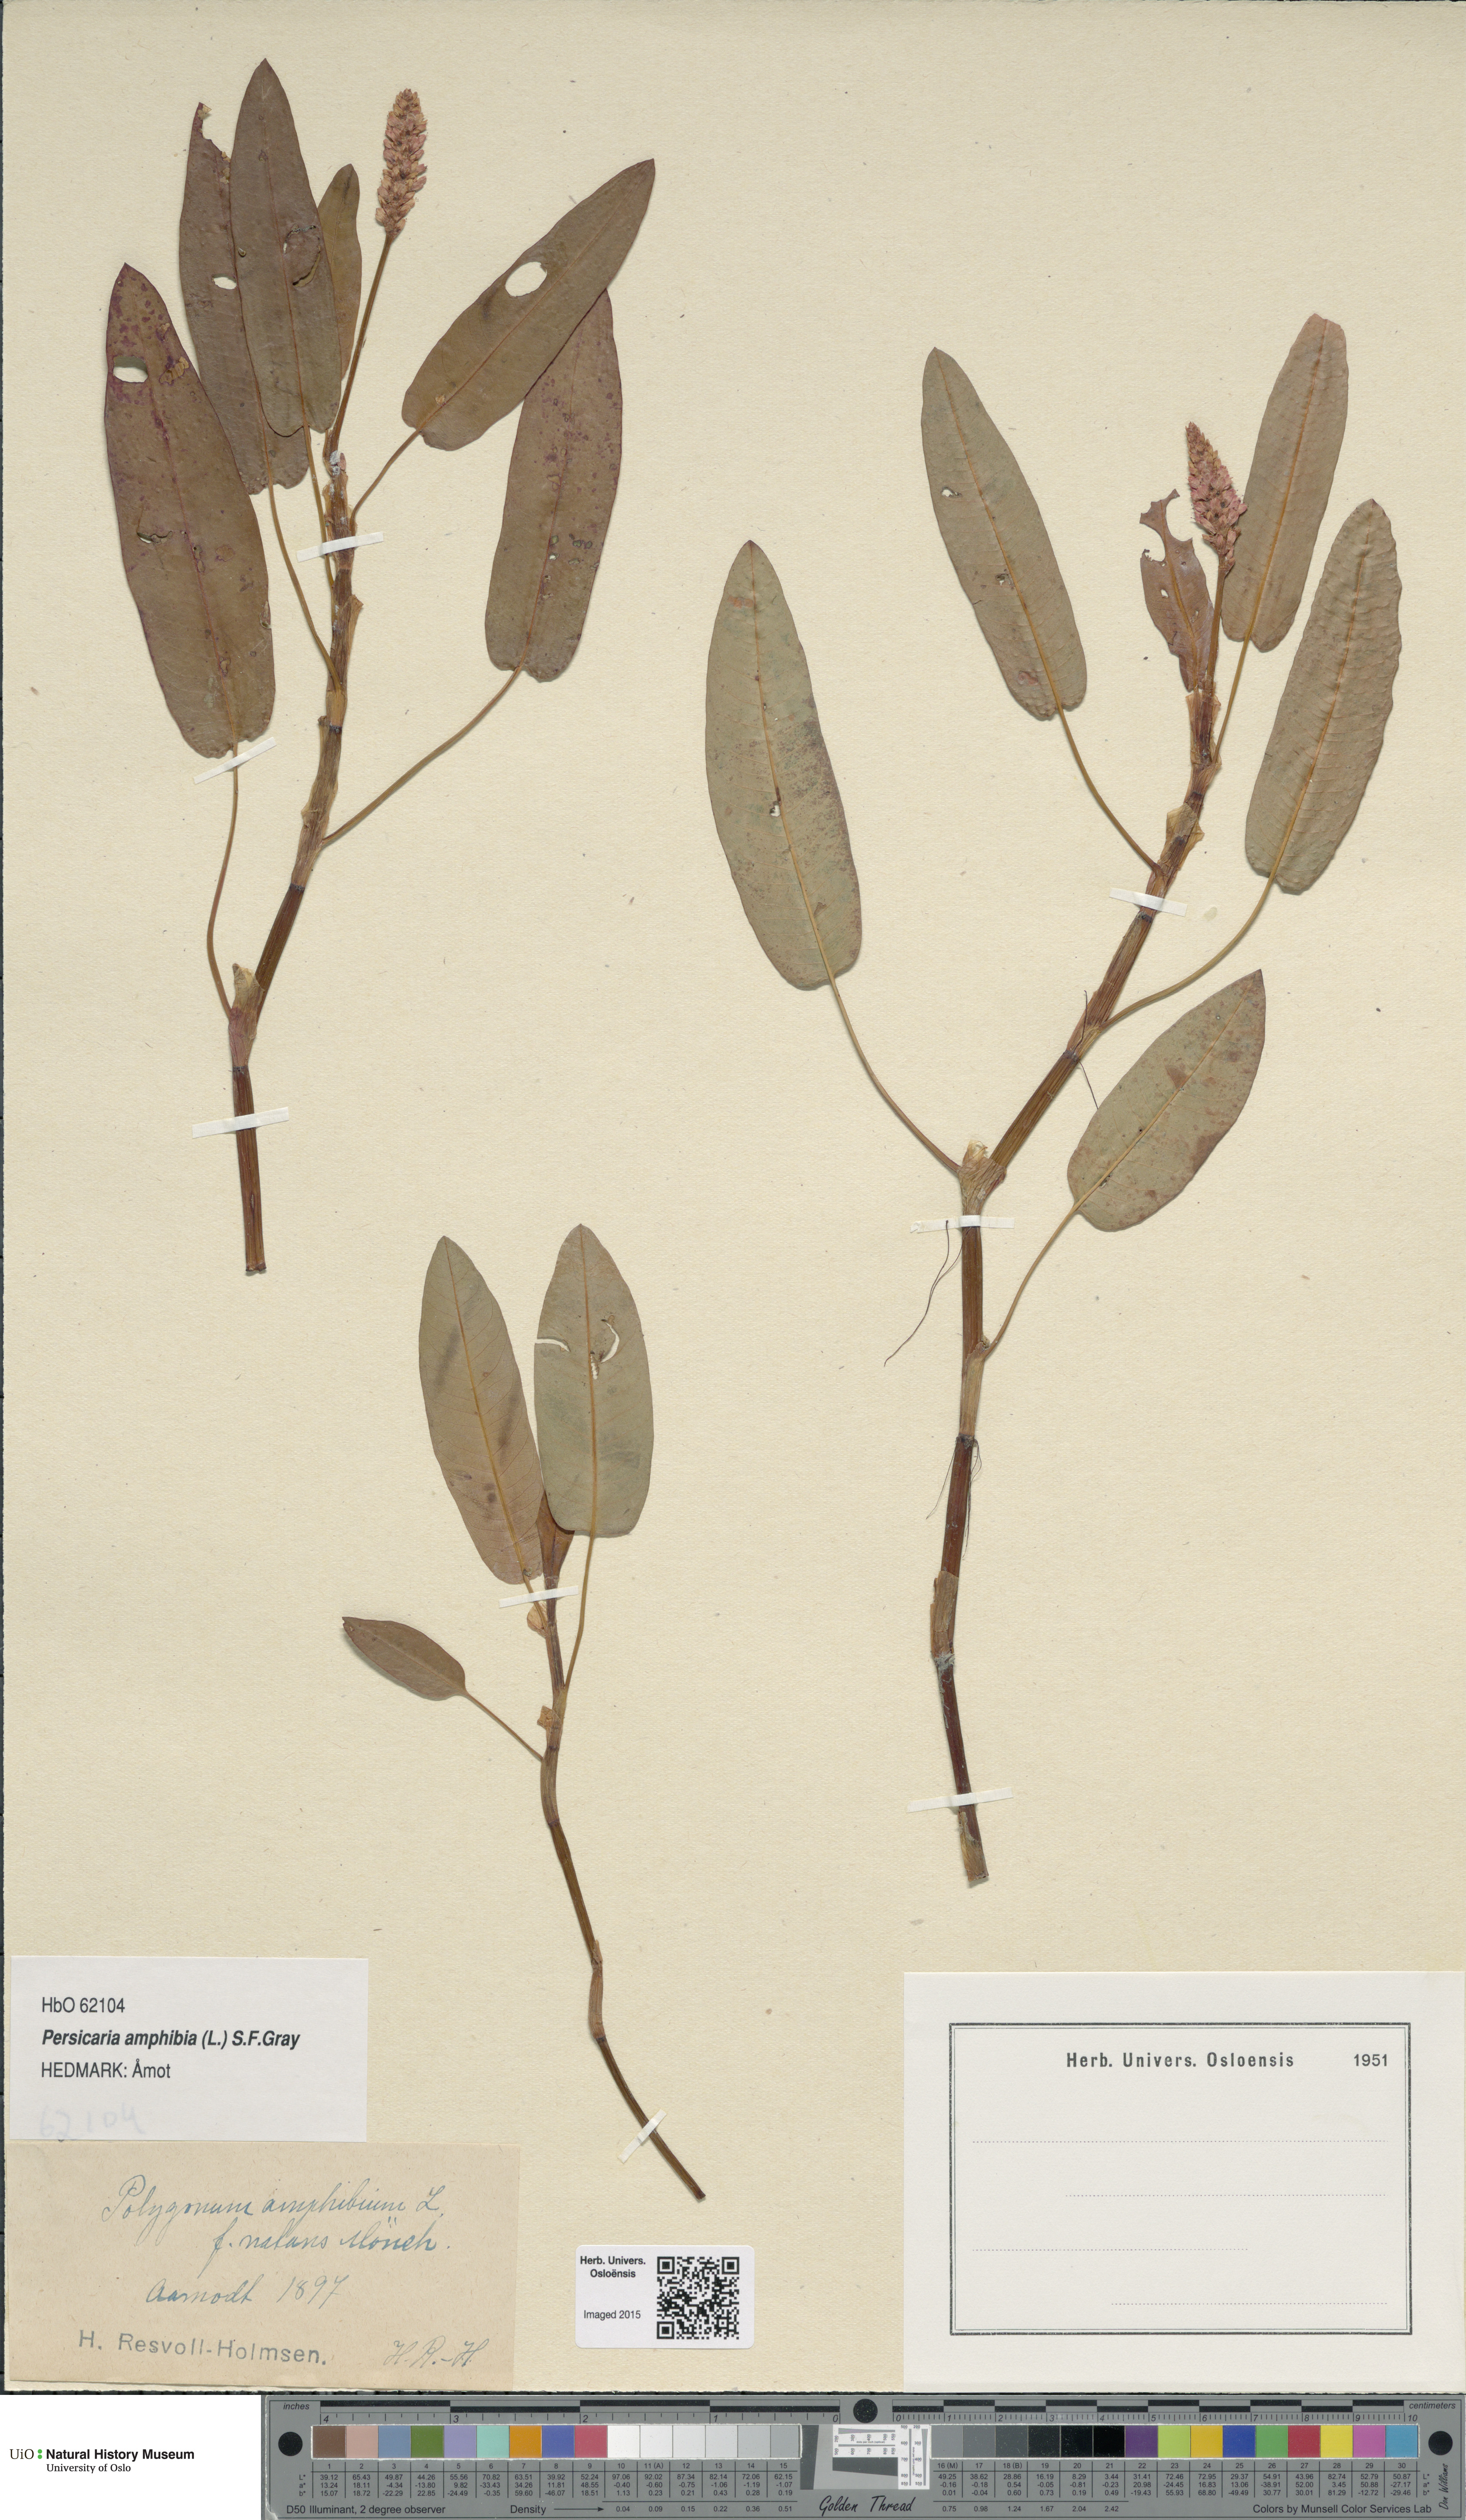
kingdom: Plantae
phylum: Tracheophyta
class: Magnoliopsida
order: Caryophyllales
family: Polygonaceae
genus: Persicaria
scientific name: Persicaria amphibia
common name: Amphibious bistort
